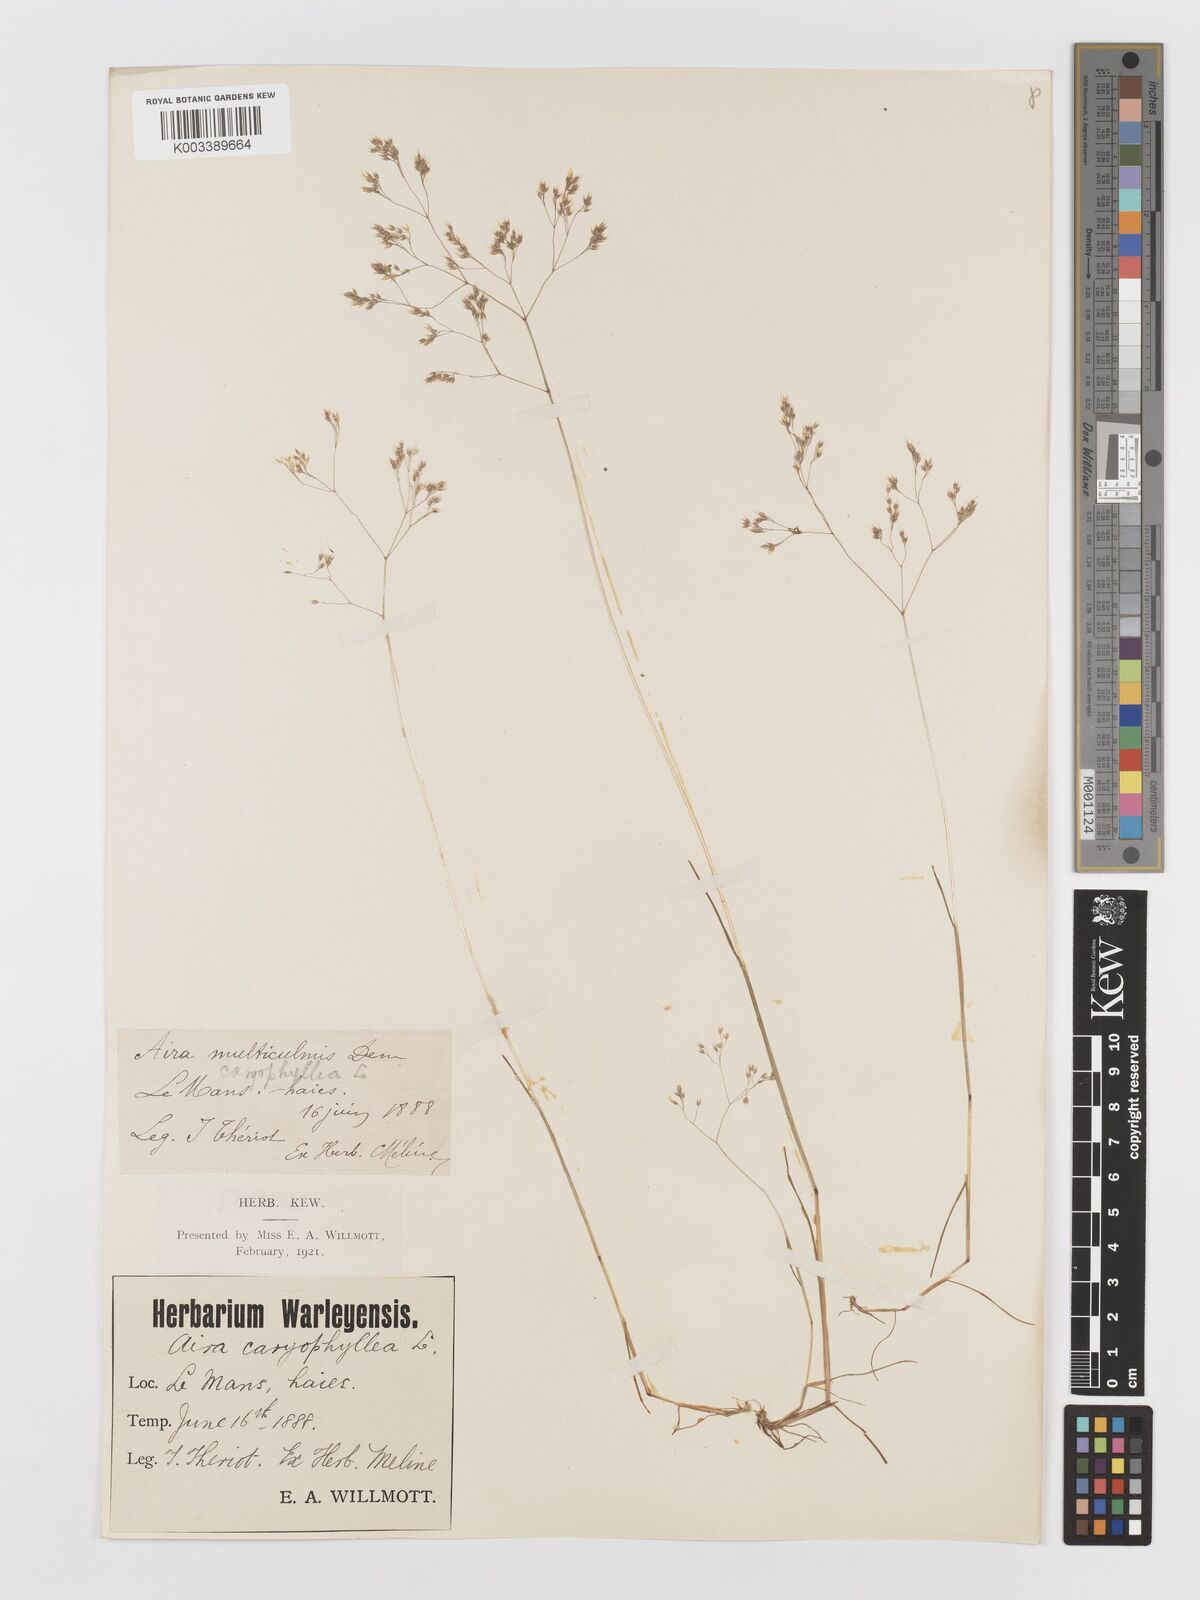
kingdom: Plantae
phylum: Tracheophyta
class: Liliopsida
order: Poales
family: Poaceae
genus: Aira
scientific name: Aira caryophyllea
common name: Silver hairgrass
